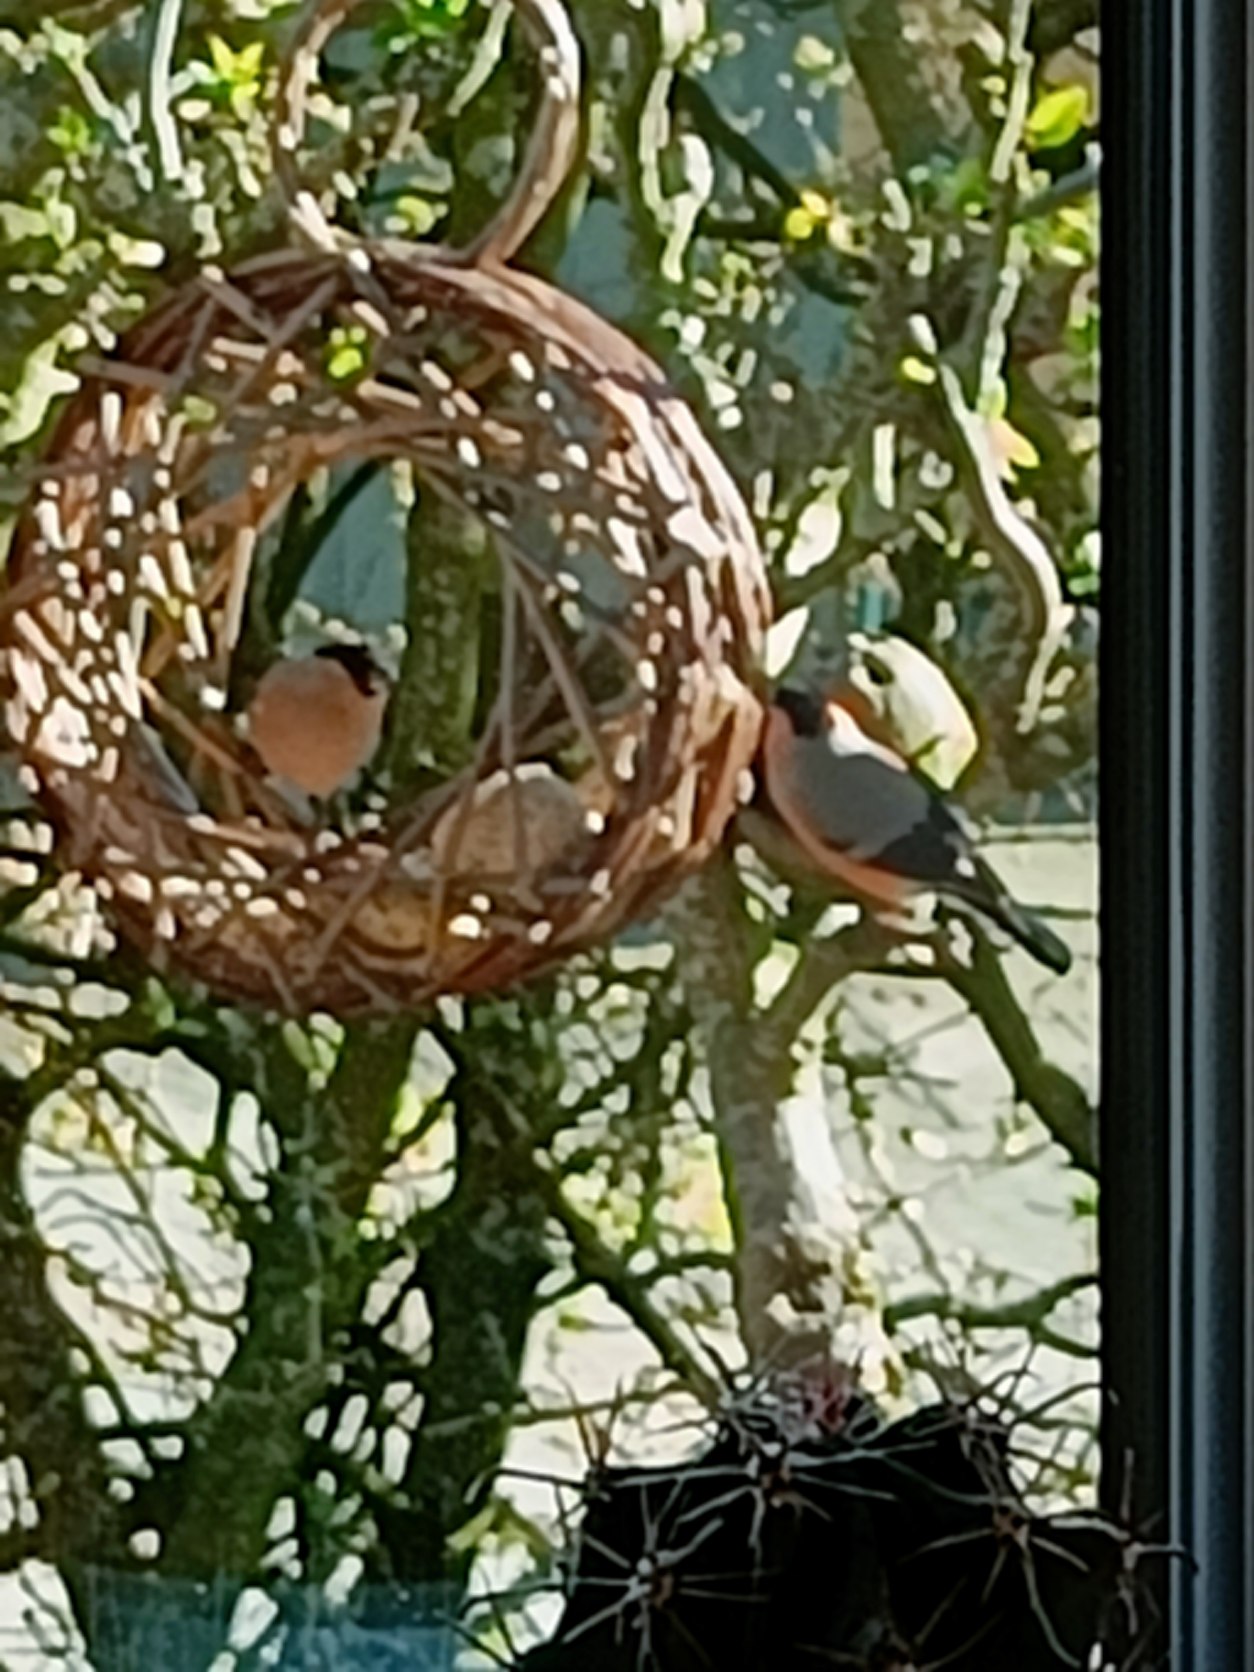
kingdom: Animalia
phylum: Chordata
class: Aves
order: Passeriformes
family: Fringillidae
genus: Pyrrhula
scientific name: Pyrrhula pyrrhula
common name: Dompap
